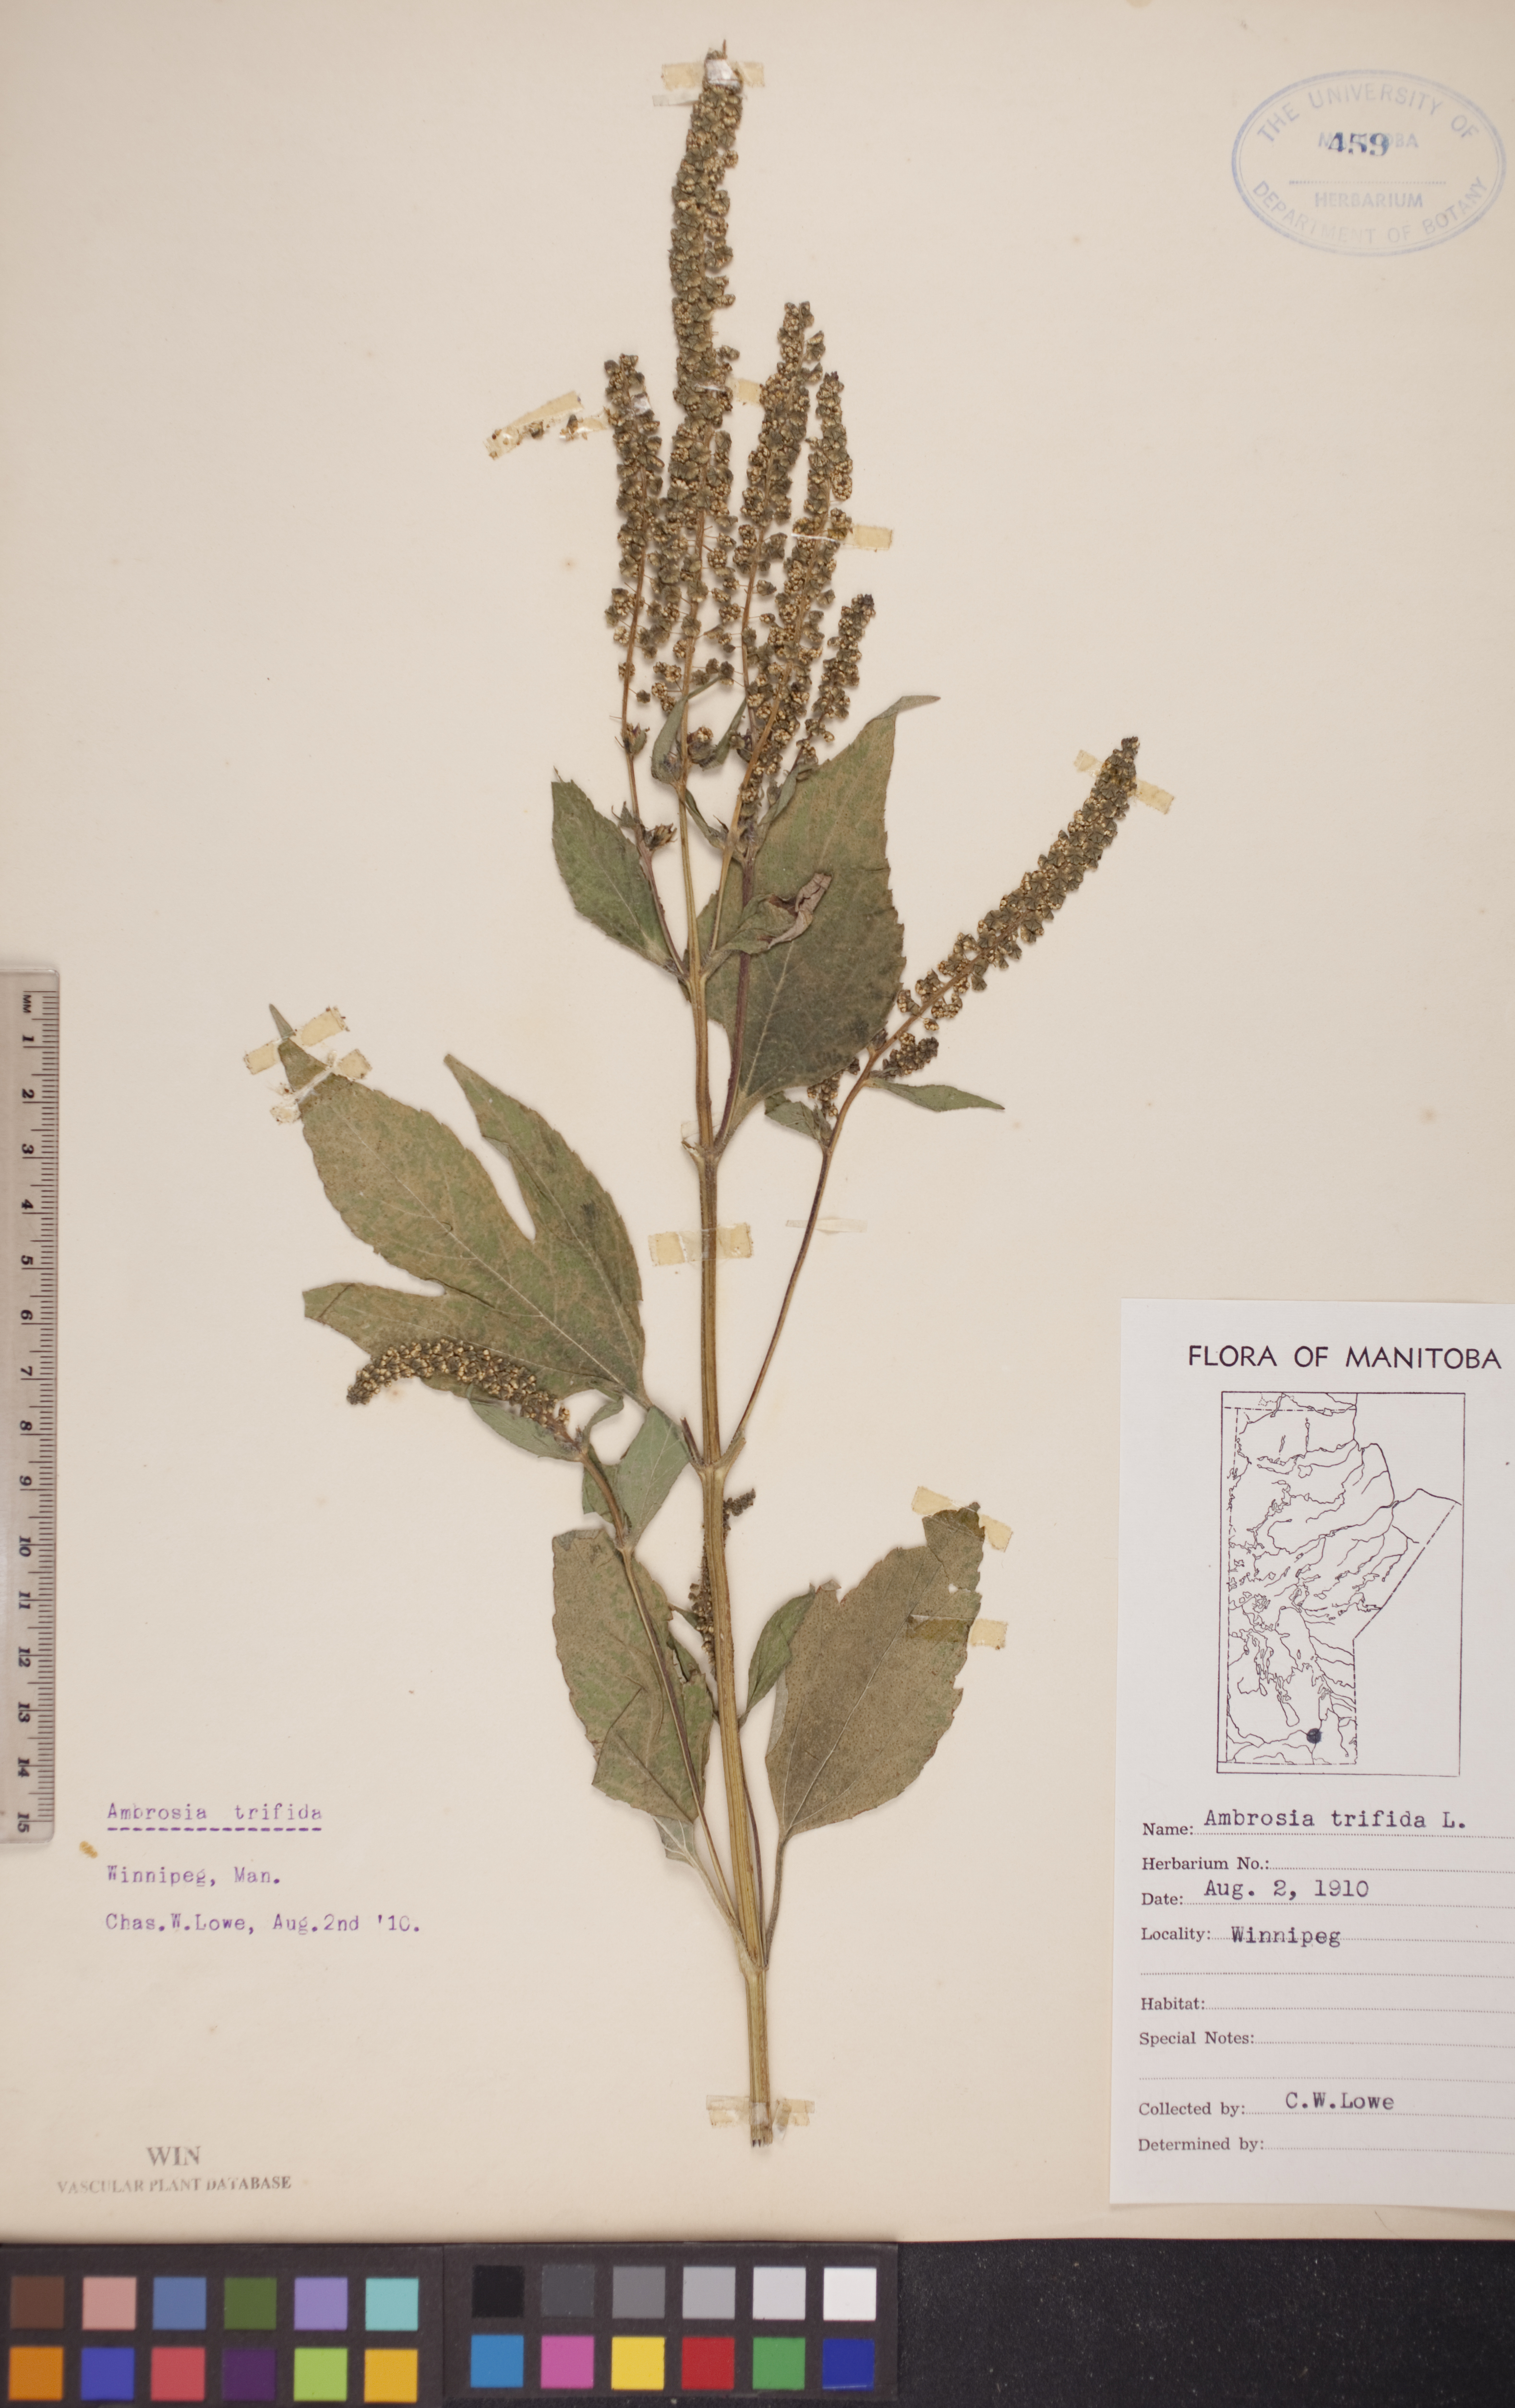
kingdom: Plantae
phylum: Tracheophyta
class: Magnoliopsida
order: Asterales
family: Asteraceae
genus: Ambrosia
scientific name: Ambrosia trifida
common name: Giant ragweed
